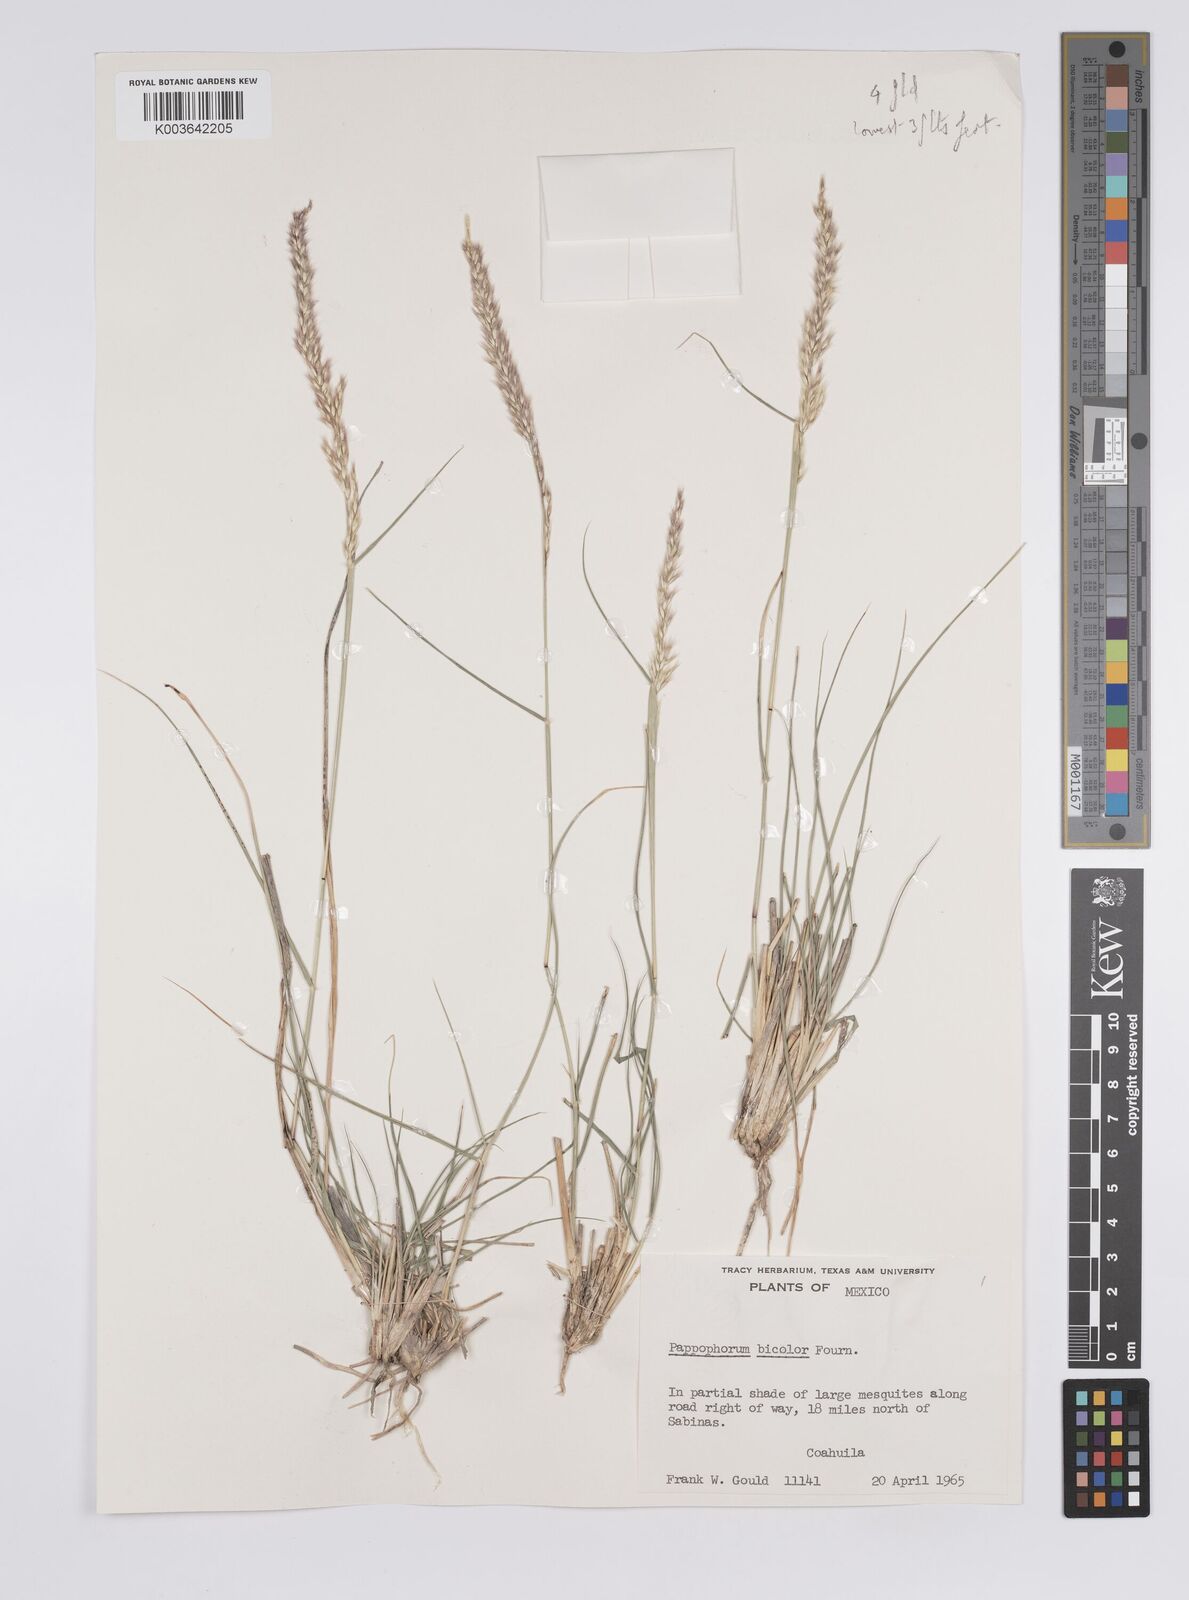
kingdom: Plantae
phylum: Tracheophyta
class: Liliopsida
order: Poales
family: Poaceae
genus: Pappophorum
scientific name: Pappophorum bicolor
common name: Pink pappus grass
